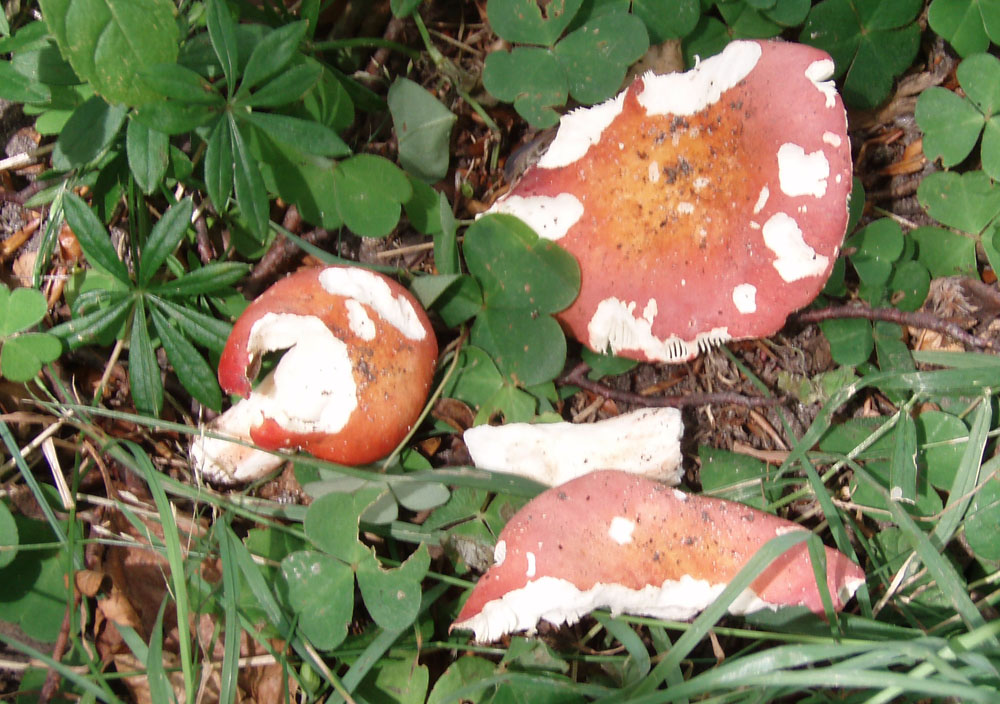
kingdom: Fungi
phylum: Basidiomycota
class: Agaricomycetes
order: Russulales
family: Russulaceae
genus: Russula
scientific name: Russula rosea
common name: fastkødet skørhat
